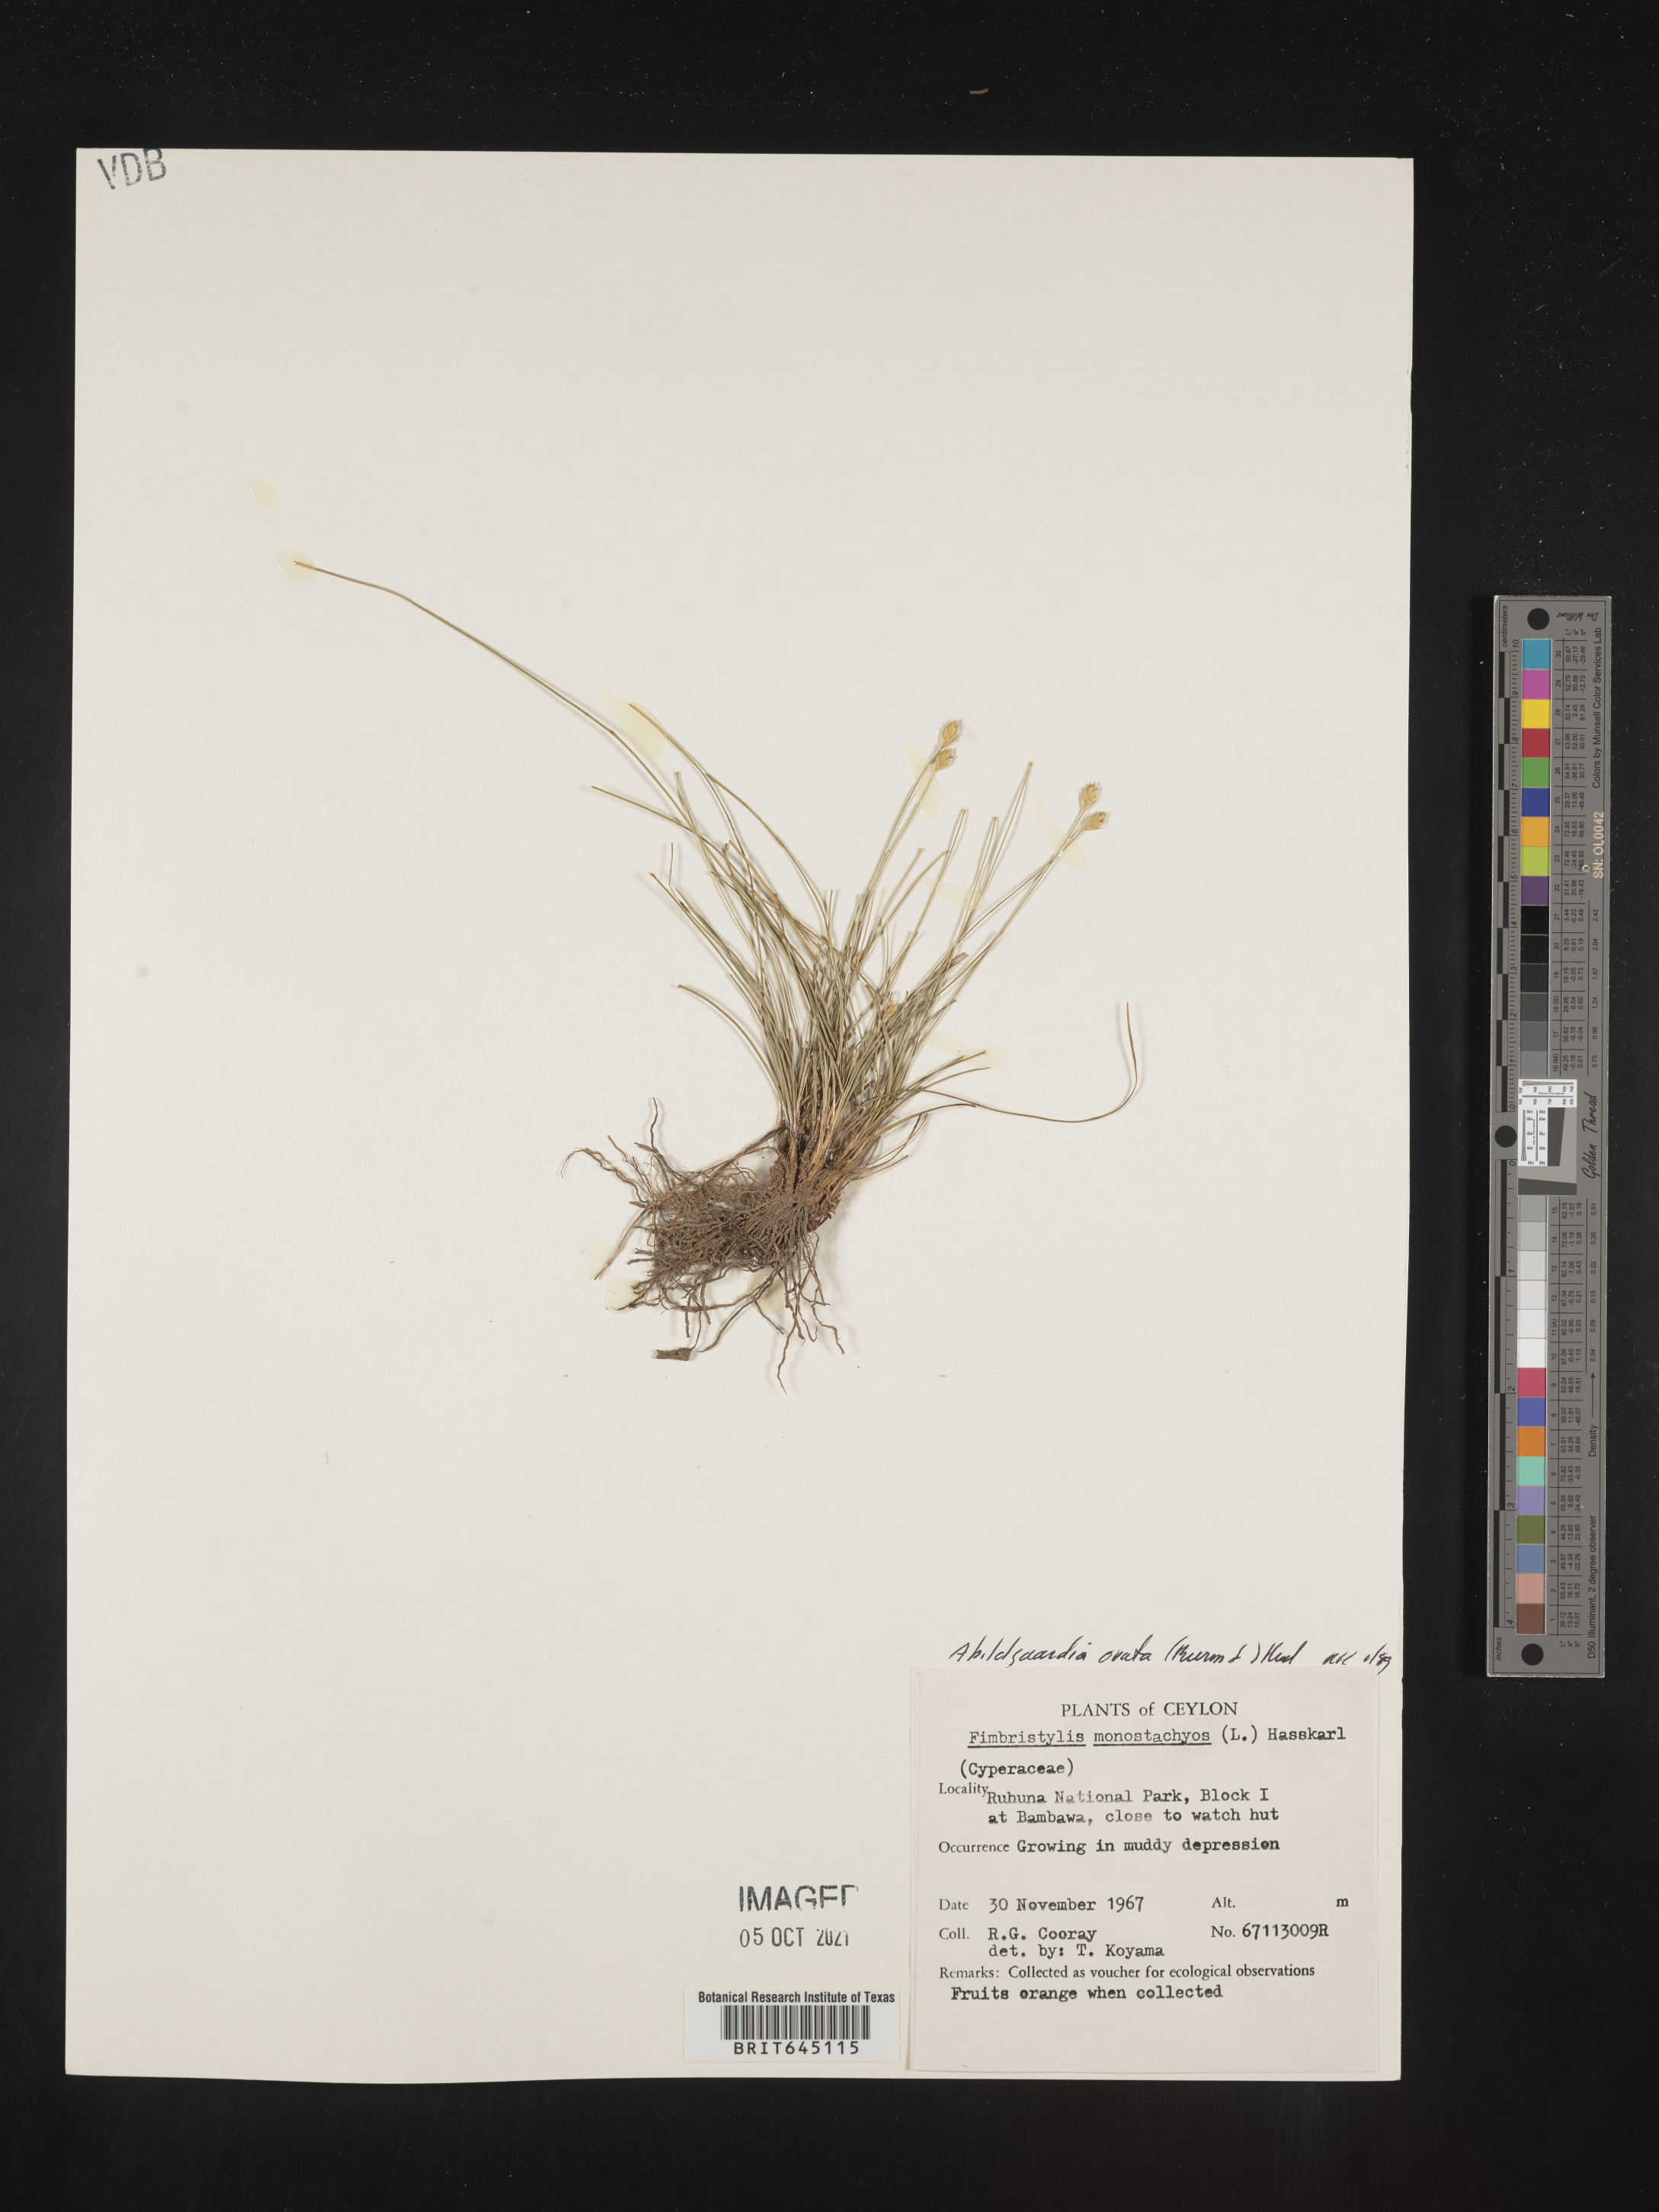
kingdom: Plantae
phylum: Tracheophyta
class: Liliopsida
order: Poales
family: Cyperaceae
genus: Abildgaardia
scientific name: Abildgaardia ovata
